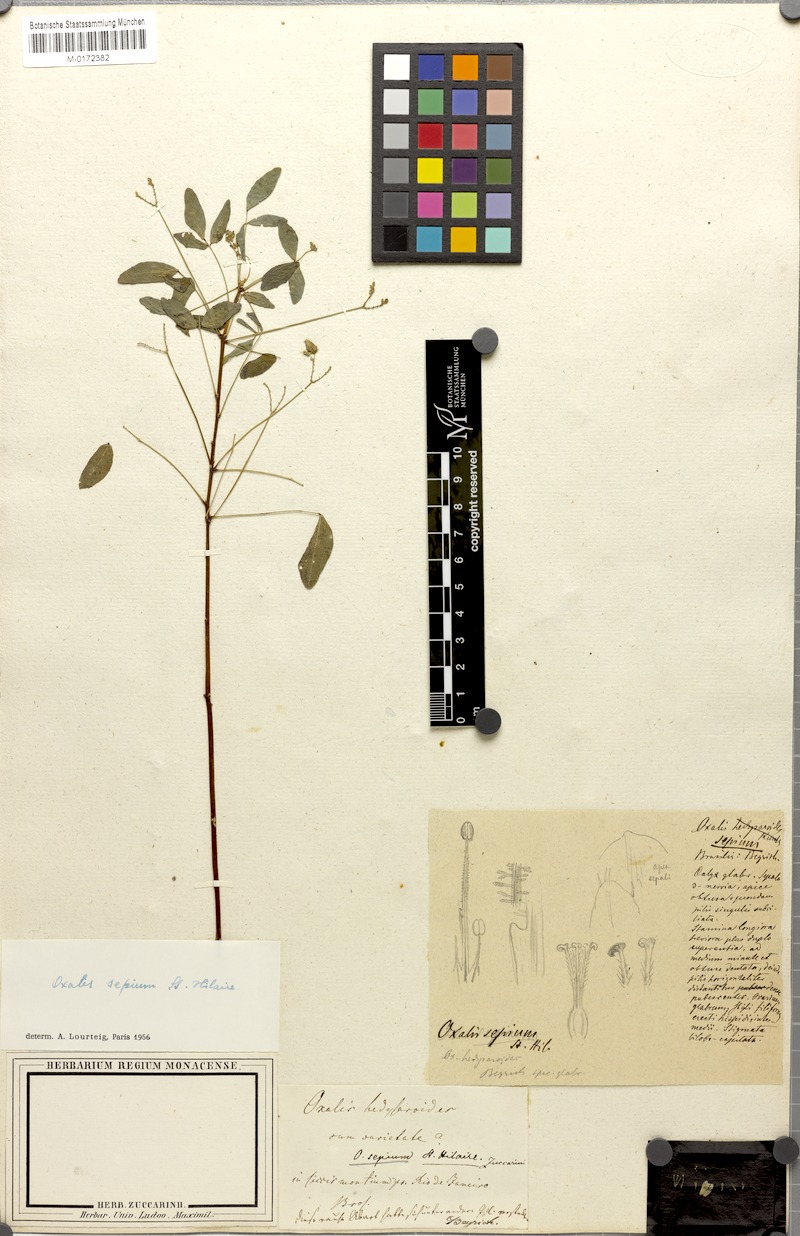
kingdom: Plantae
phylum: Tracheophyta
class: Magnoliopsida
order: Oxalidales
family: Oxalidaceae
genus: Oxalis
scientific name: Oxalis sepium
